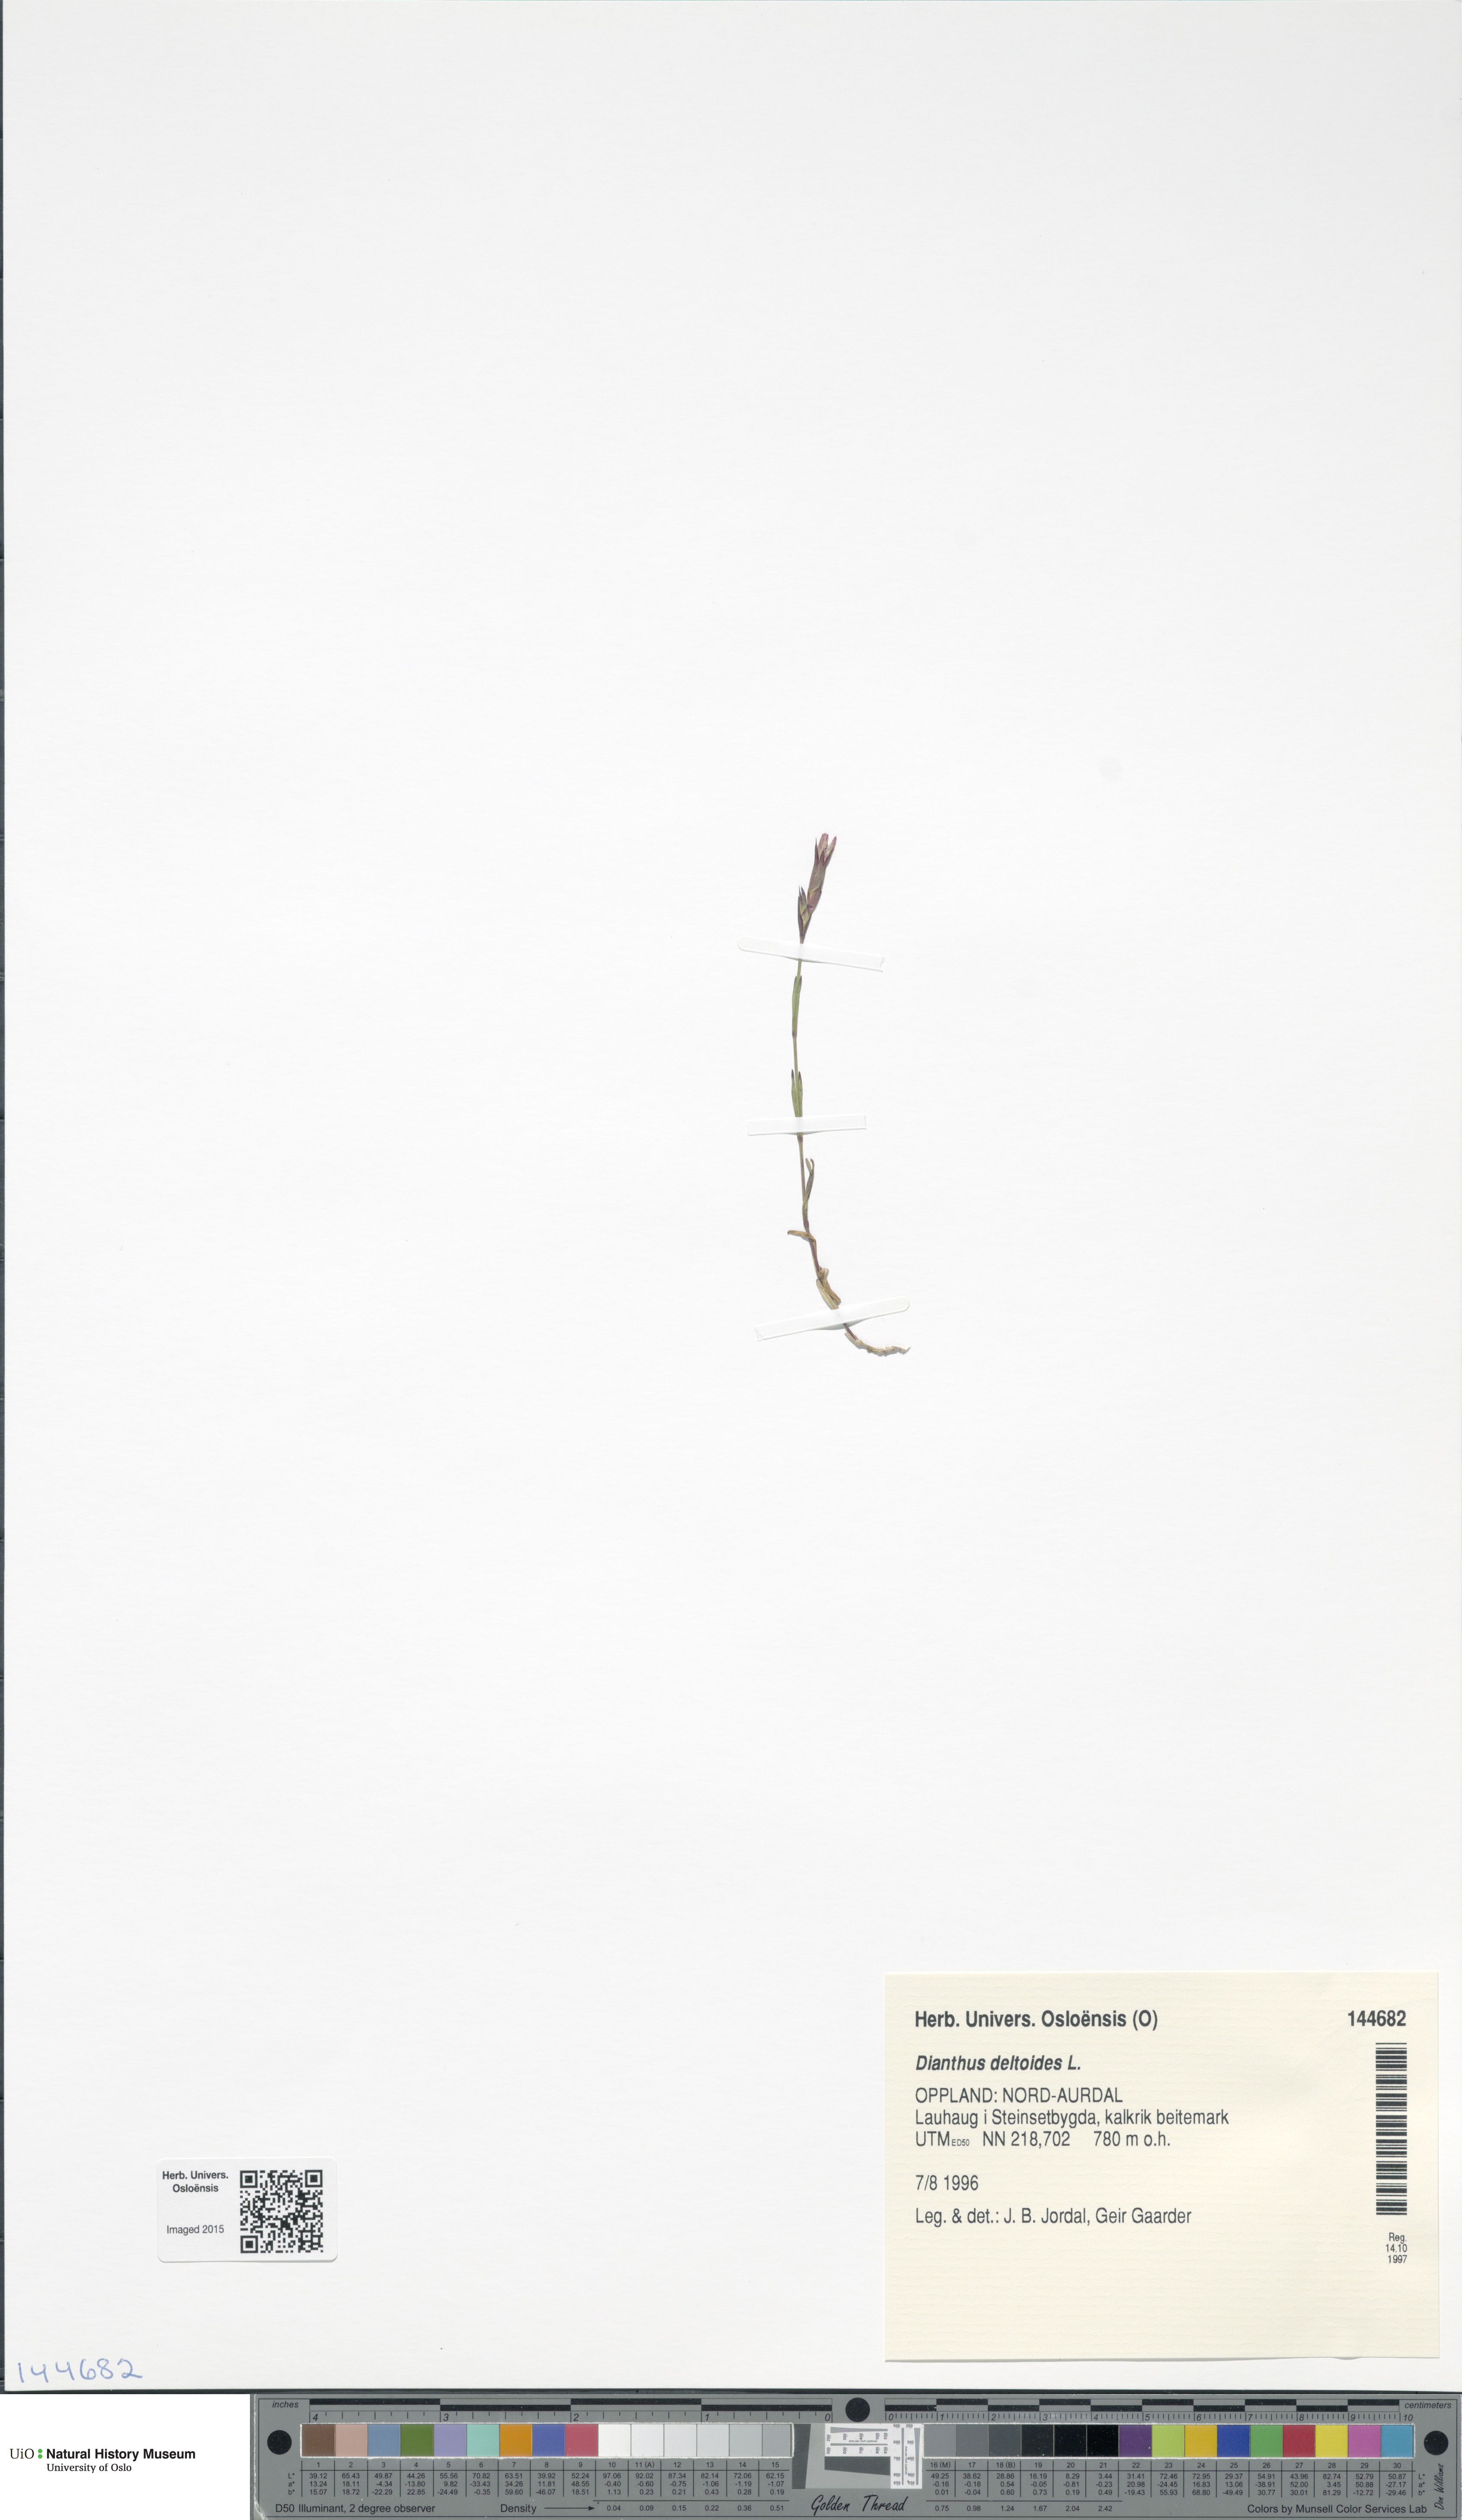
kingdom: Plantae
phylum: Tracheophyta
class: Magnoliopsida
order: Caryophyllales
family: Caryophyllaceae
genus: Dianthus
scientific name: Dianthus deltoides
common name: Maiden pink
